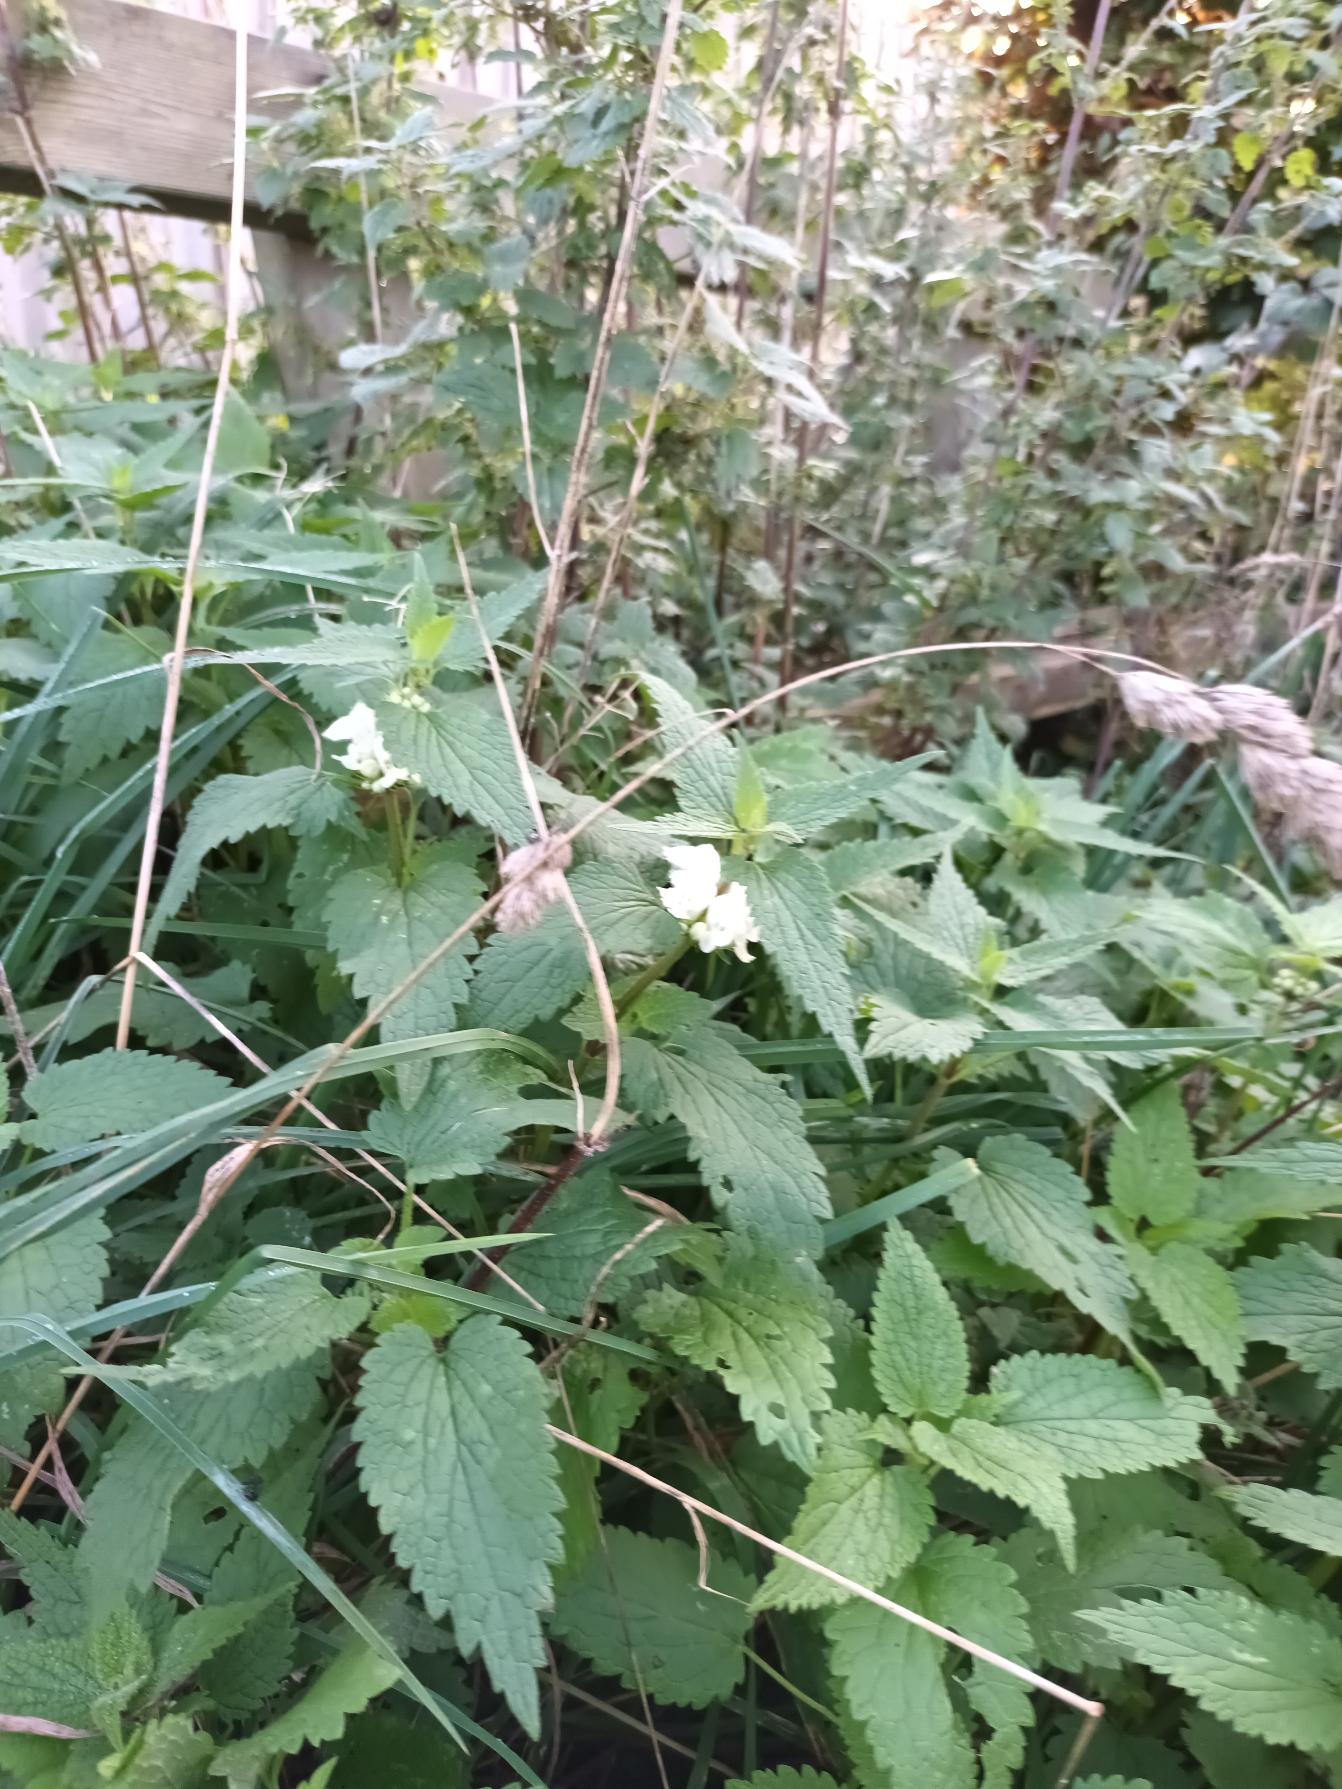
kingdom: Plantae
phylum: Tracheophyta
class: Magnoliopsida
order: Lamiales
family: Lamiaceae
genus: Lamium
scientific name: Lamium album
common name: Døvnælde
